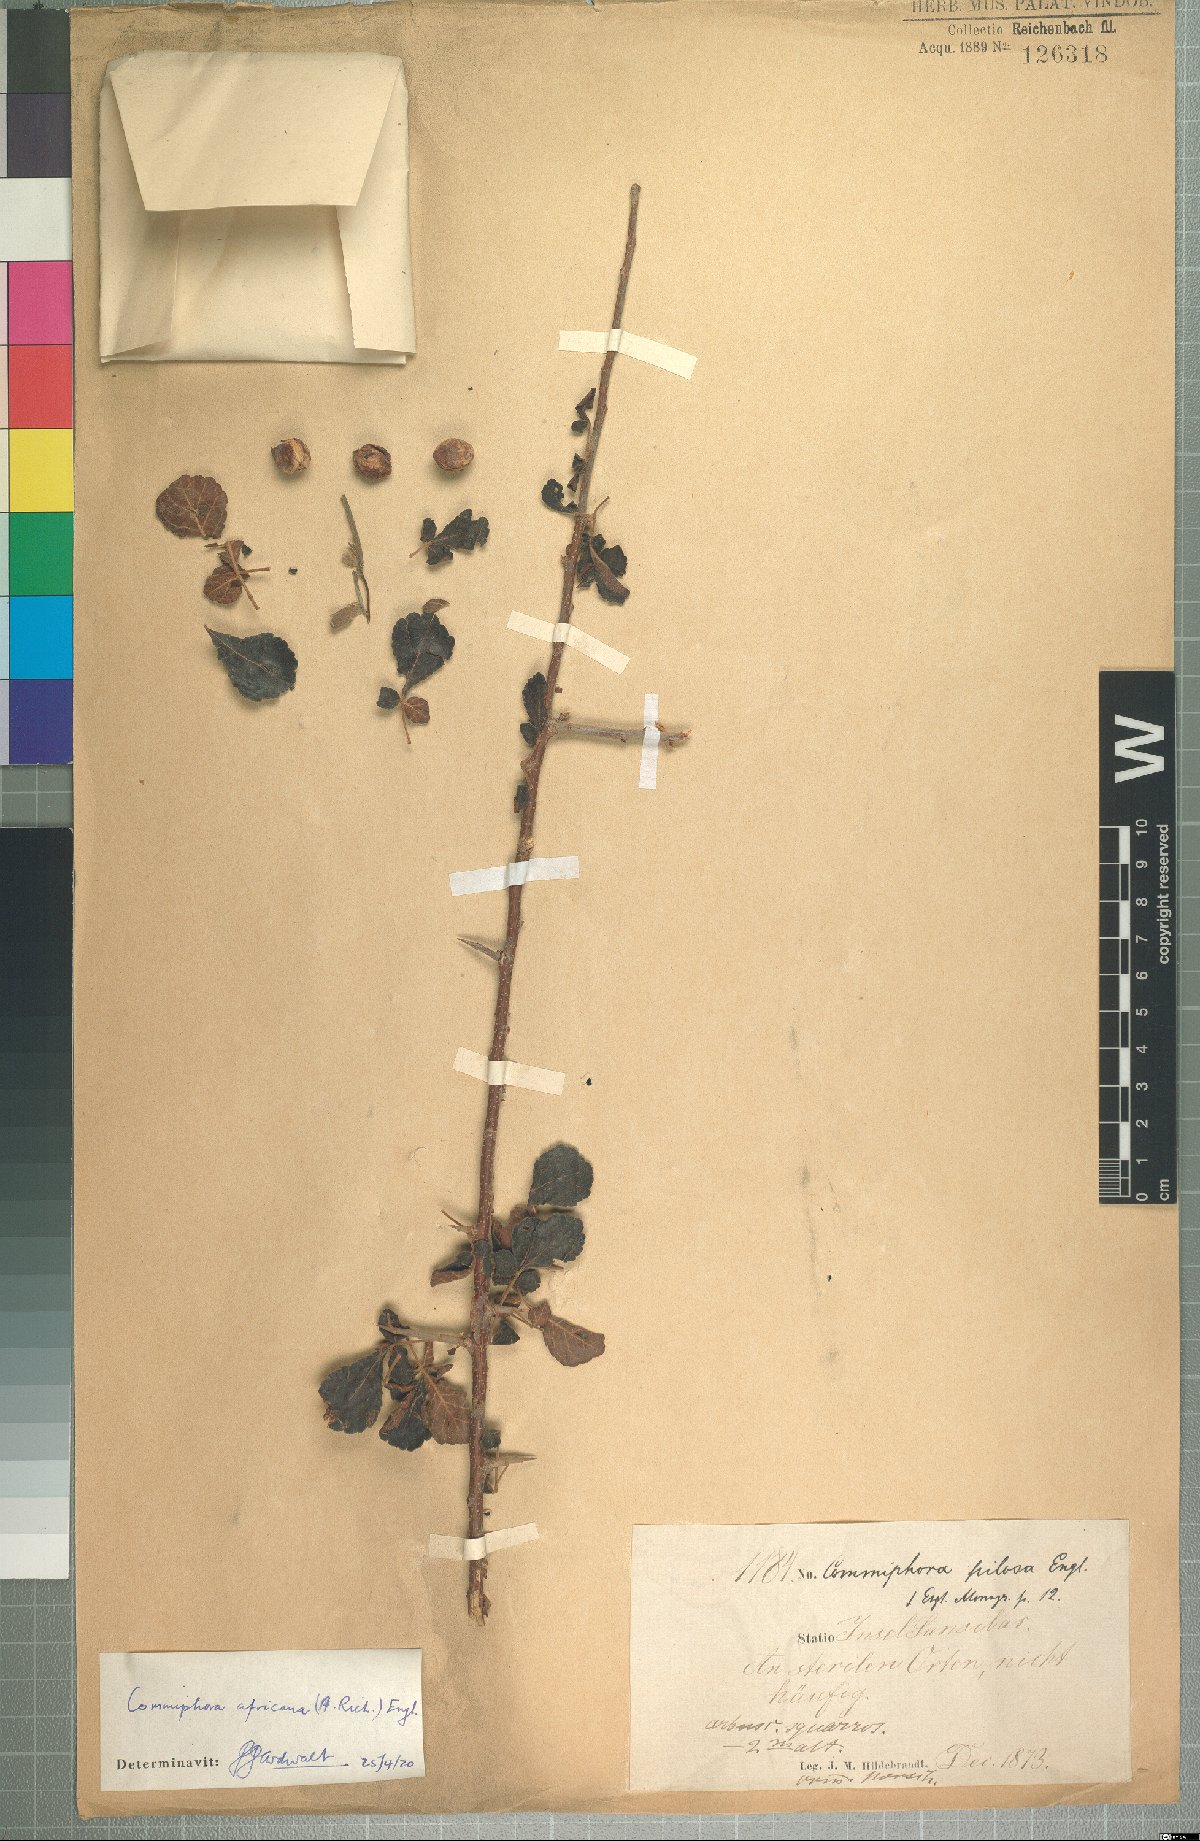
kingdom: Plantae
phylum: Tracheophyta
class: Magnoliopsida
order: Sapindales
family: Burseraceae
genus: Commiphora
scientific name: Commiphora africana
